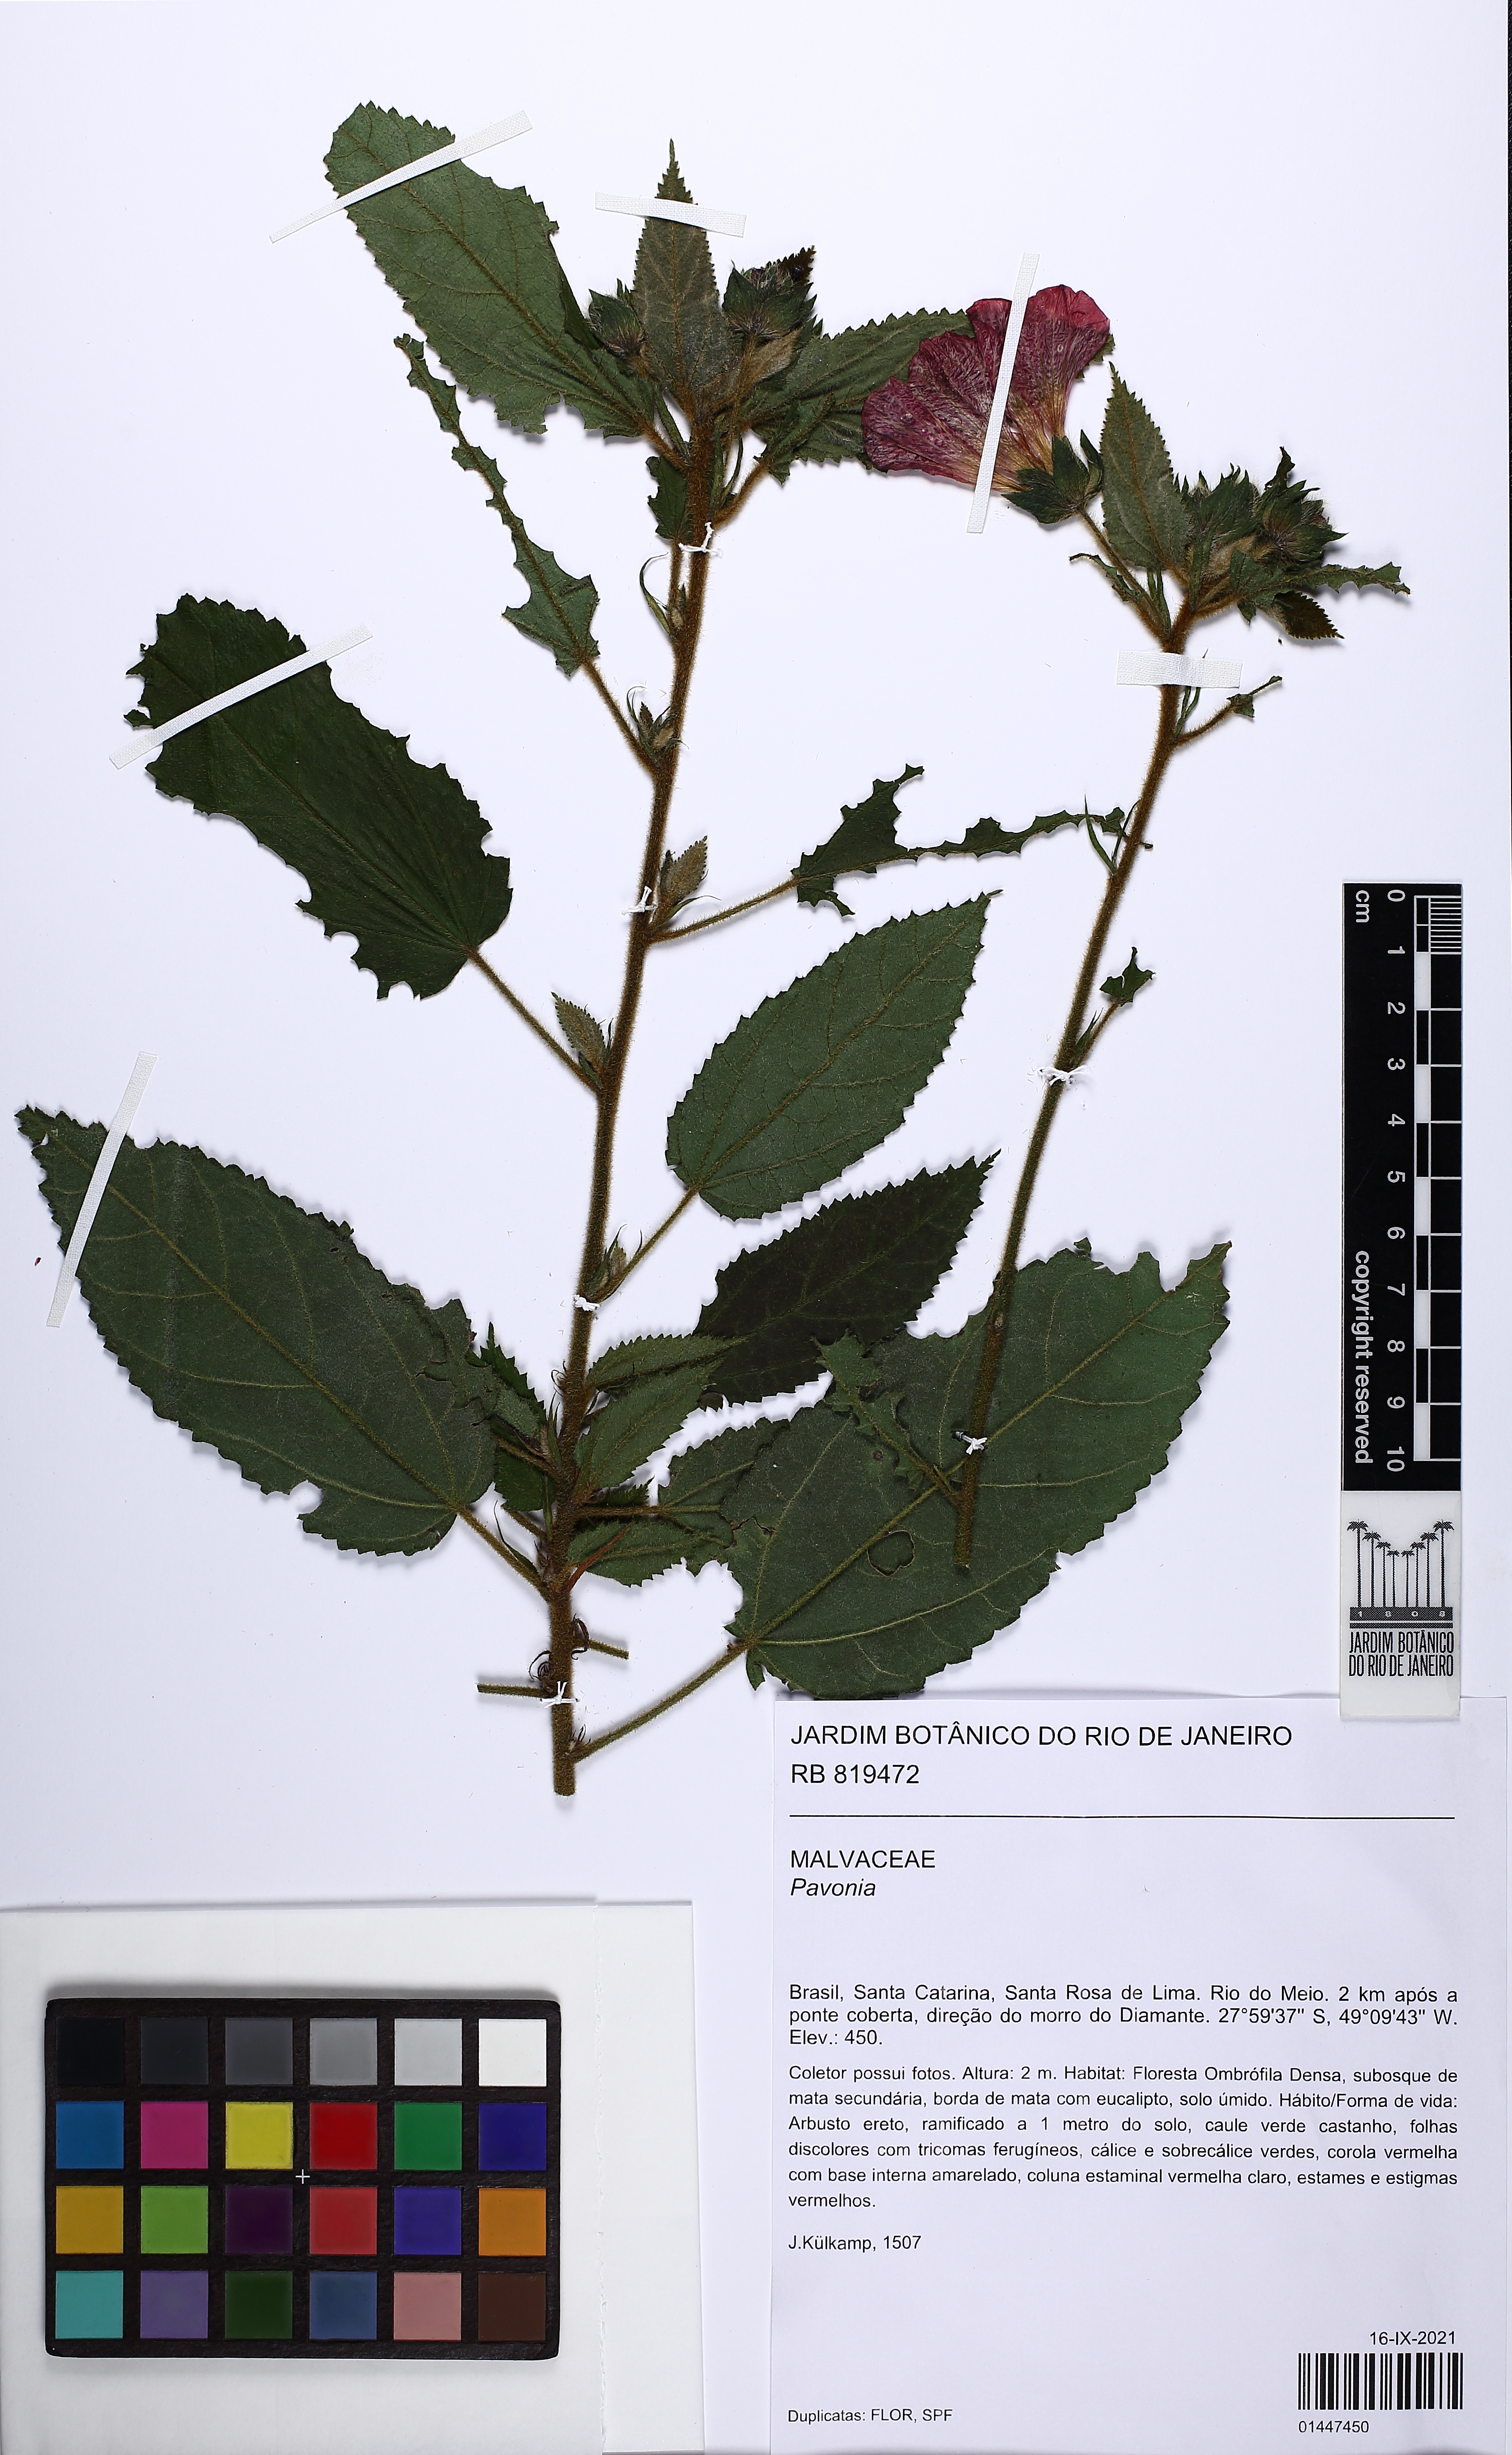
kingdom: Plantae
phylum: Tracheophyta
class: Magnoliopsida
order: Malvales
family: Malvaceae
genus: Pavonia
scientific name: Pavonia
